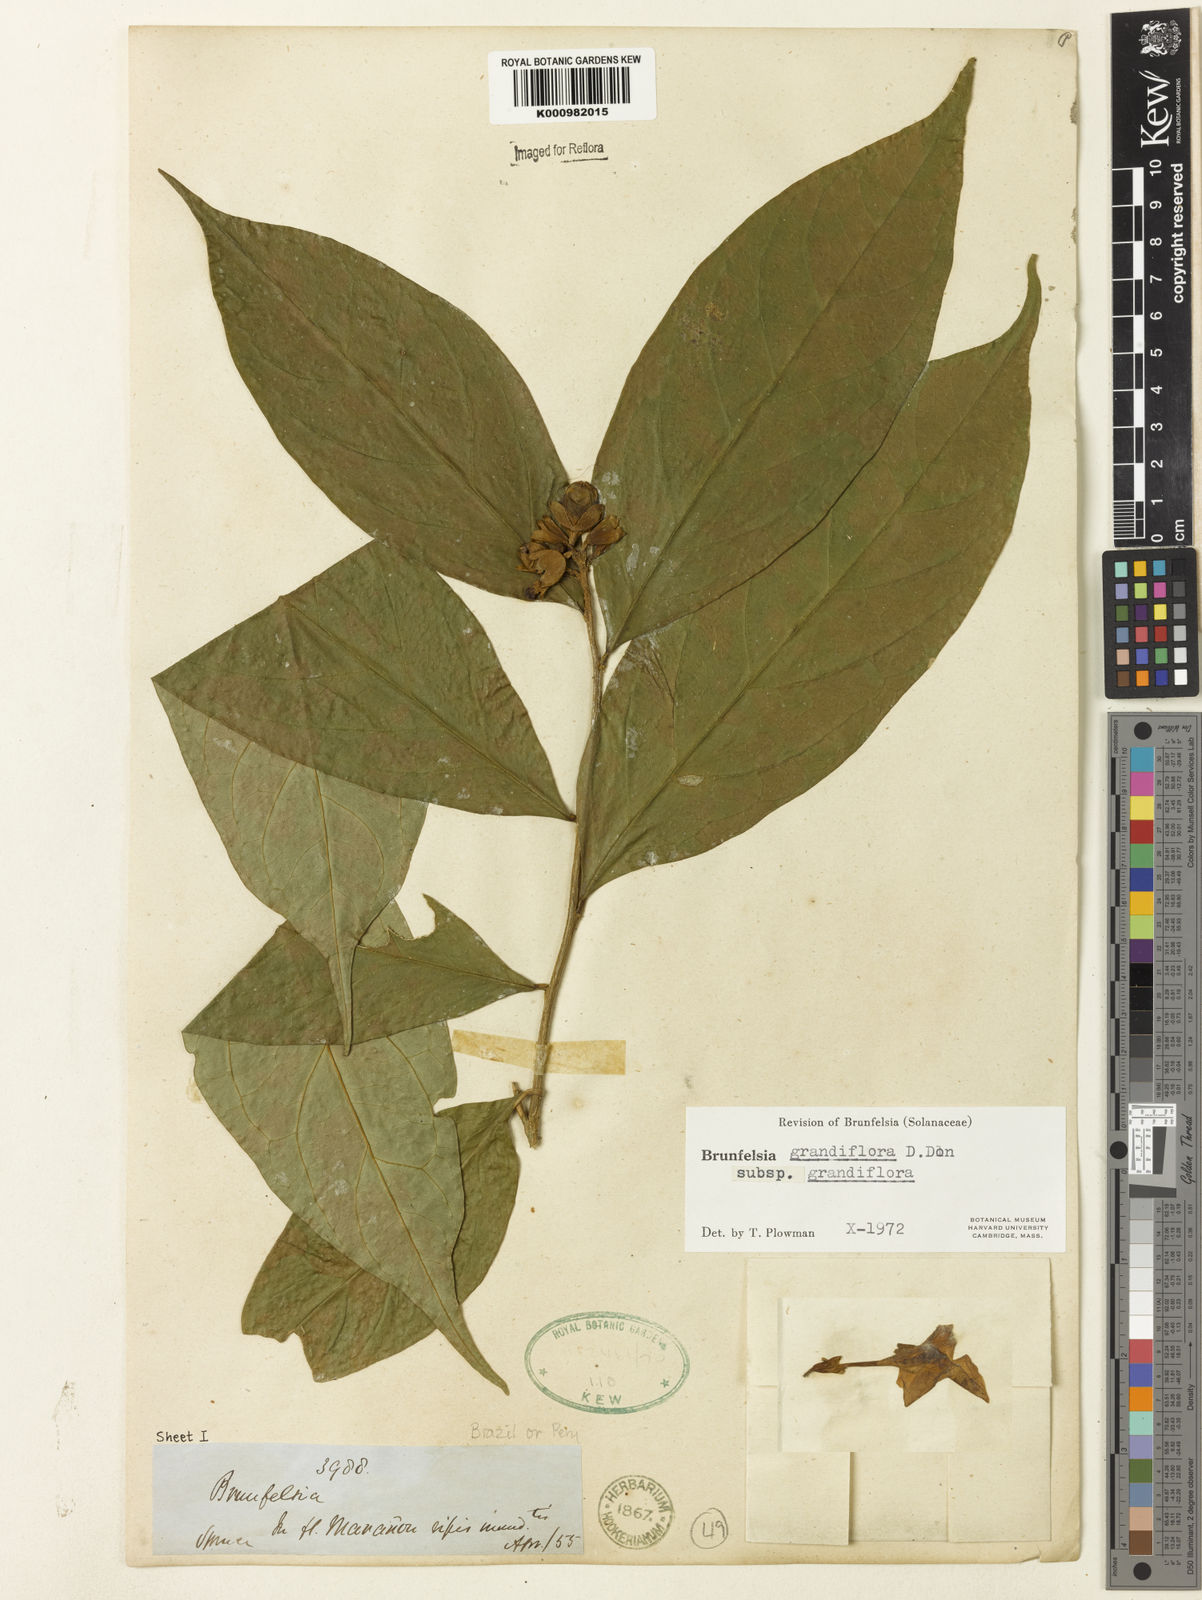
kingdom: Plantae
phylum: Tracheophyta
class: Magnoliopsida
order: Solanales
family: Solanaceae
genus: Brunfelsia
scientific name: Brunfelsia grandiflora
